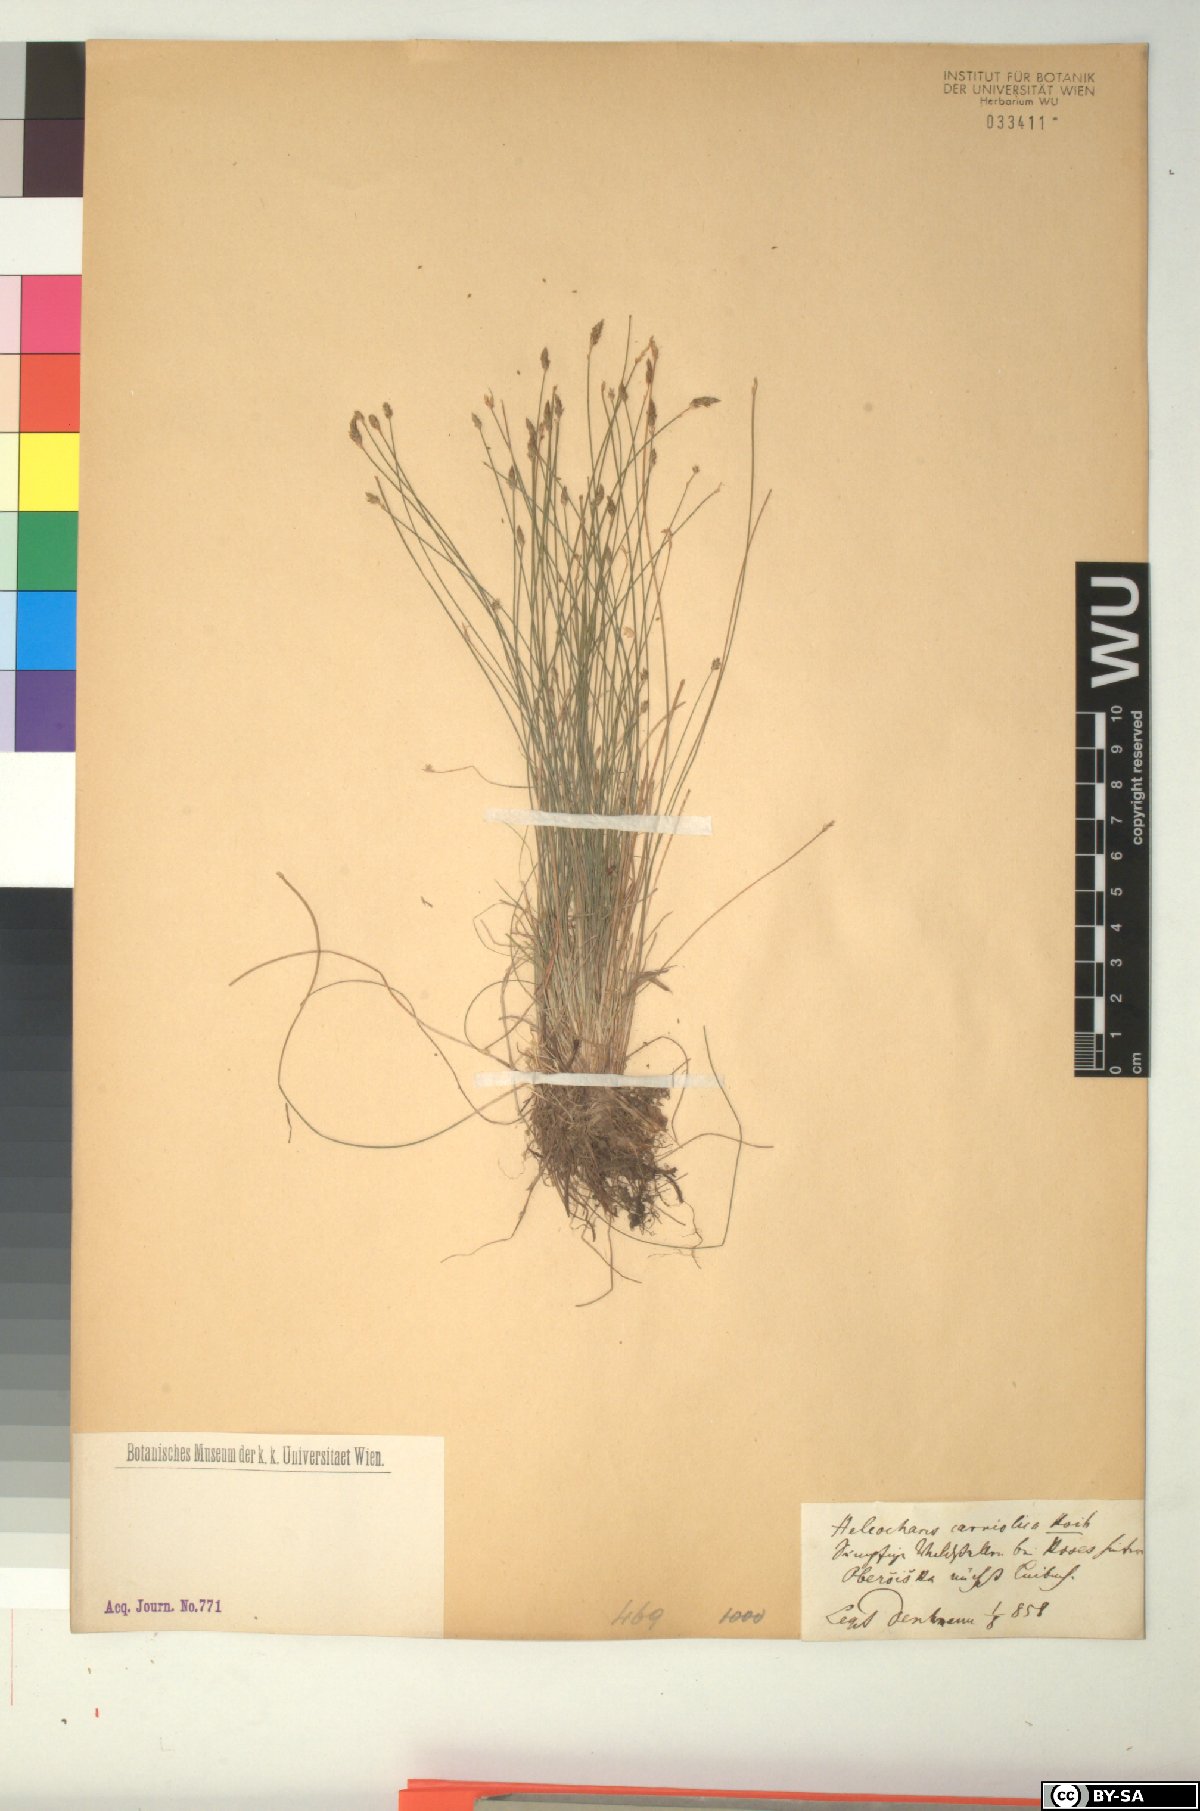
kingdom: Plantae
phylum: Tracheophyta
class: Liliopsida
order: Poales
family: Cyperaceae
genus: Eleocharis
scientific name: Eleocharis carniolica
